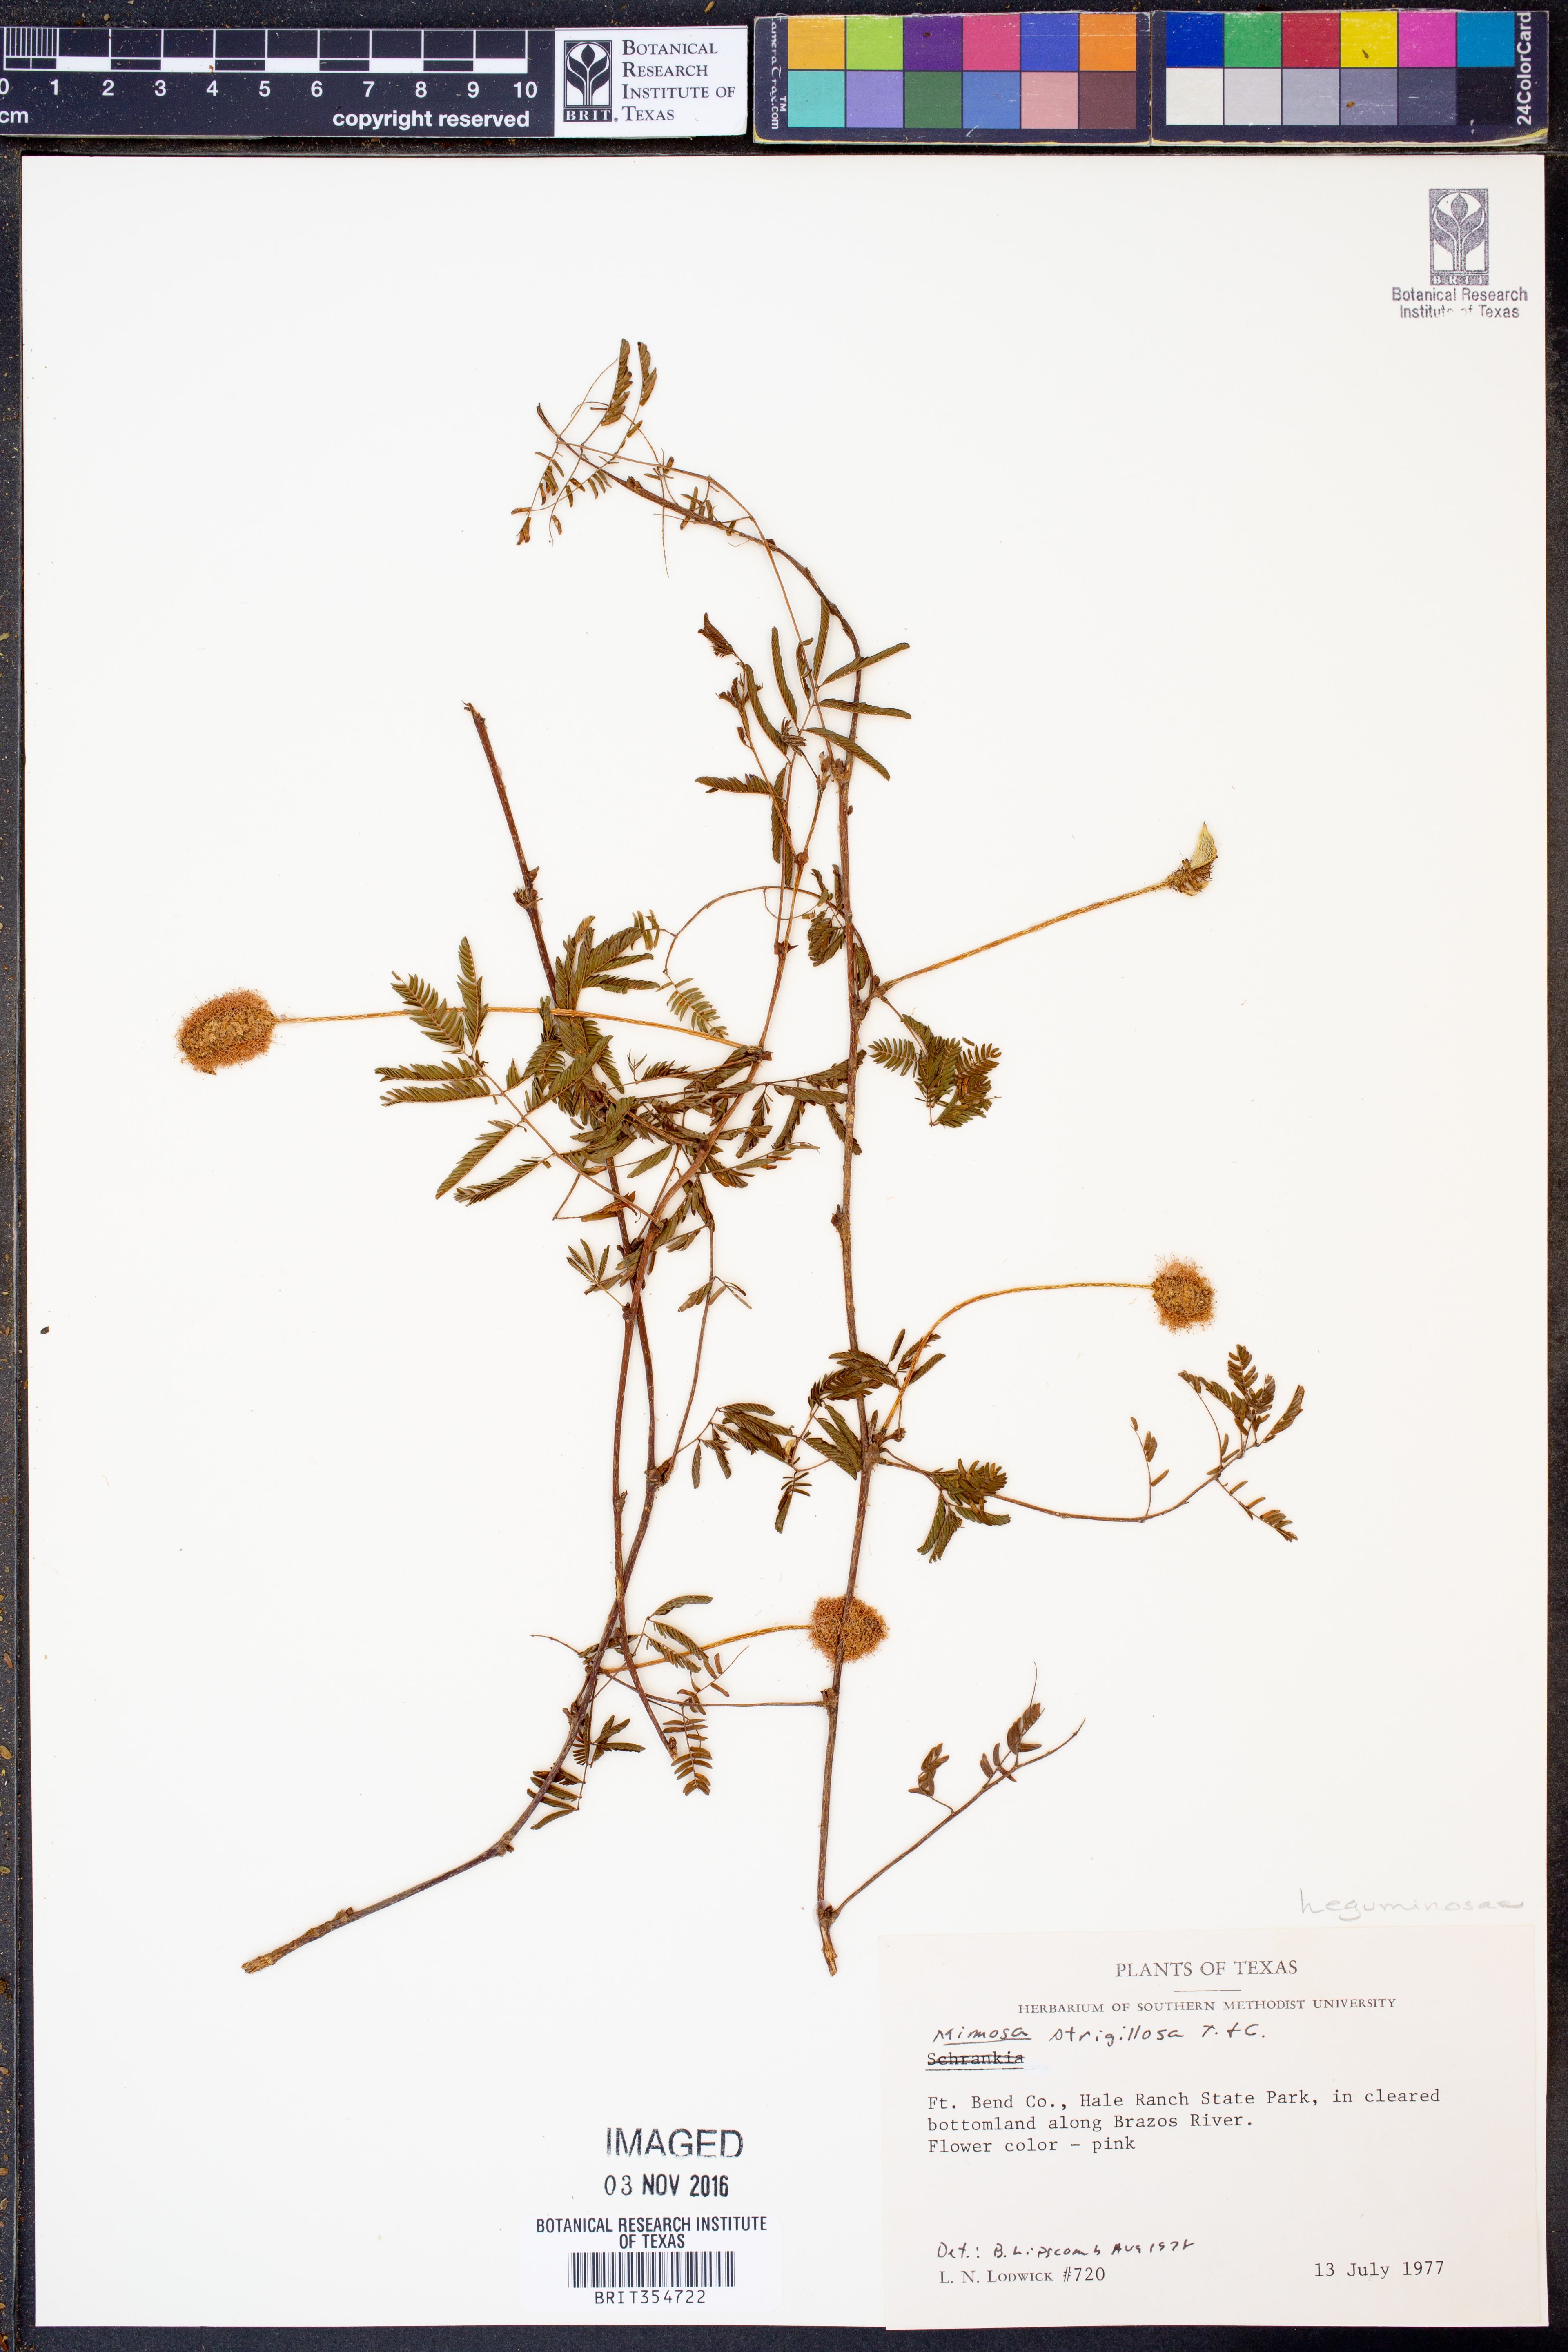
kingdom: Plantae
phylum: Tracheophyta
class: Magnoliopsida
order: Fabales
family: Fabaceae
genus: Mimosa
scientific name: Mimosa strigillosa
